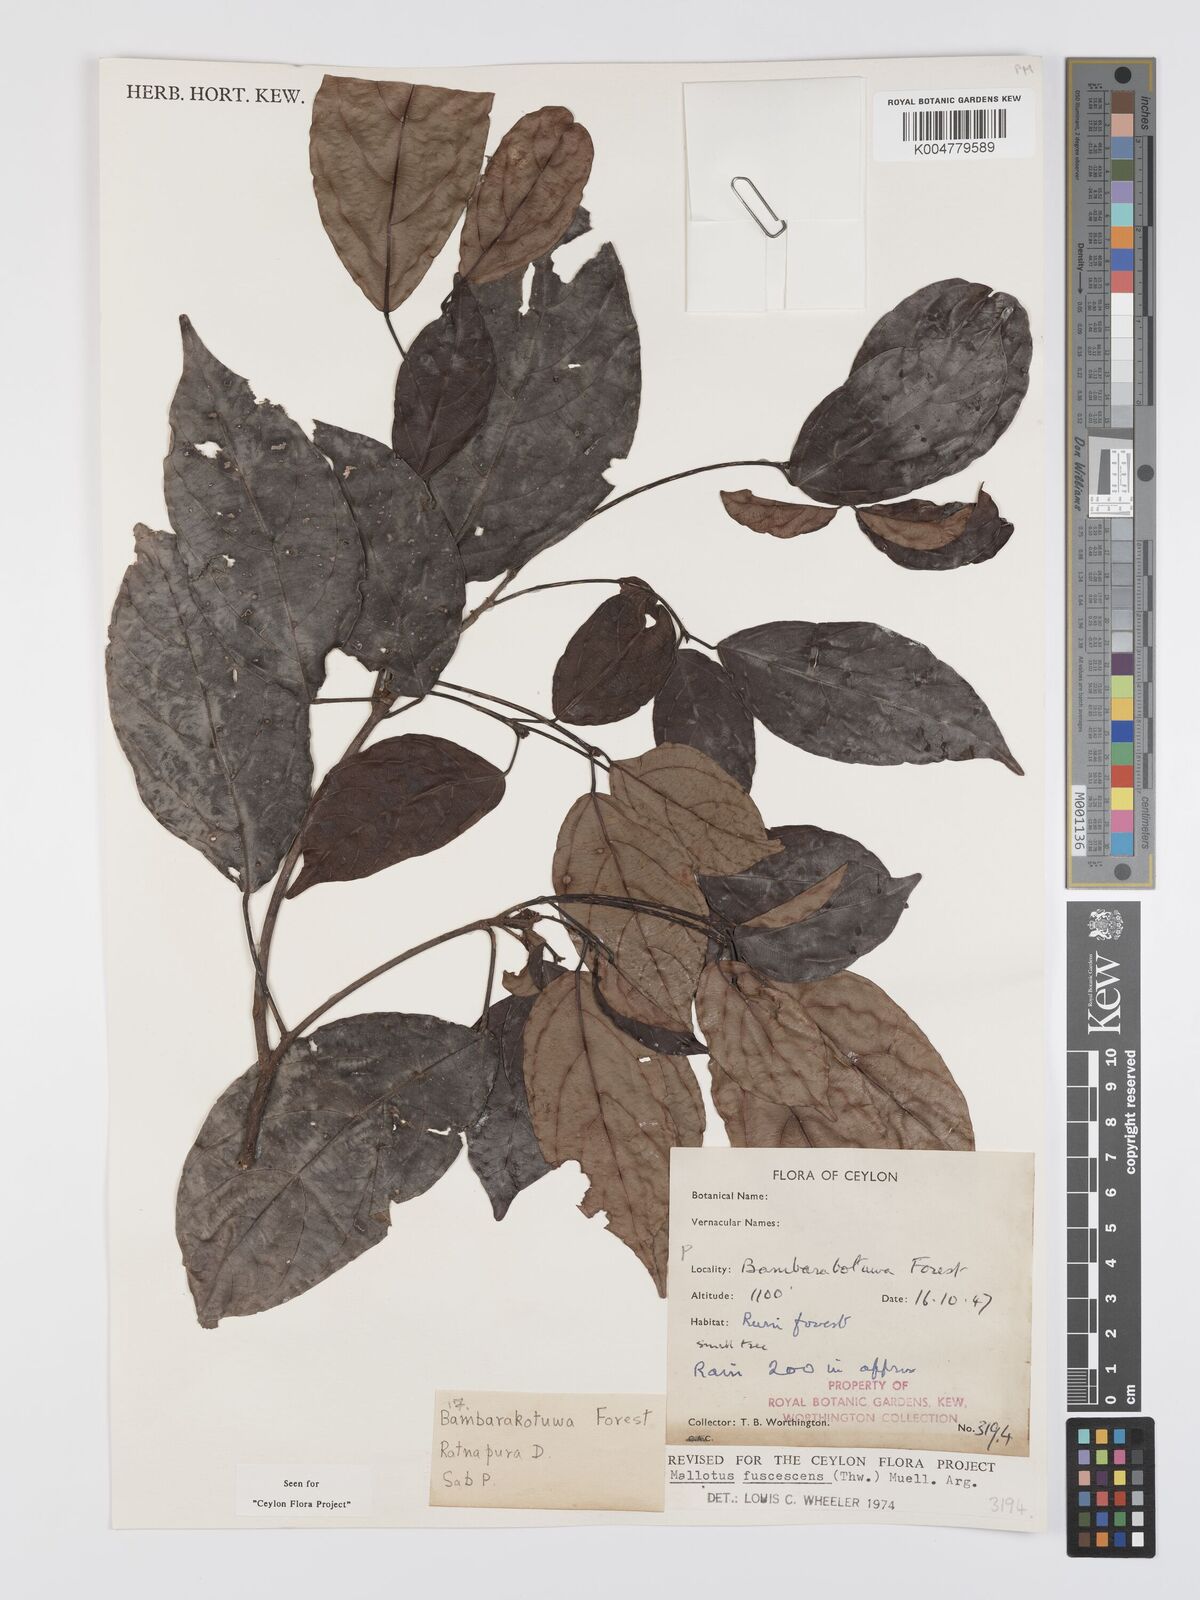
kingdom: Plantae
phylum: Tracheophyta
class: Magnoliopsida
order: Malpighiales
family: Euphorbiaceae
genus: Mallotus
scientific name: Mallotus fuscescens
